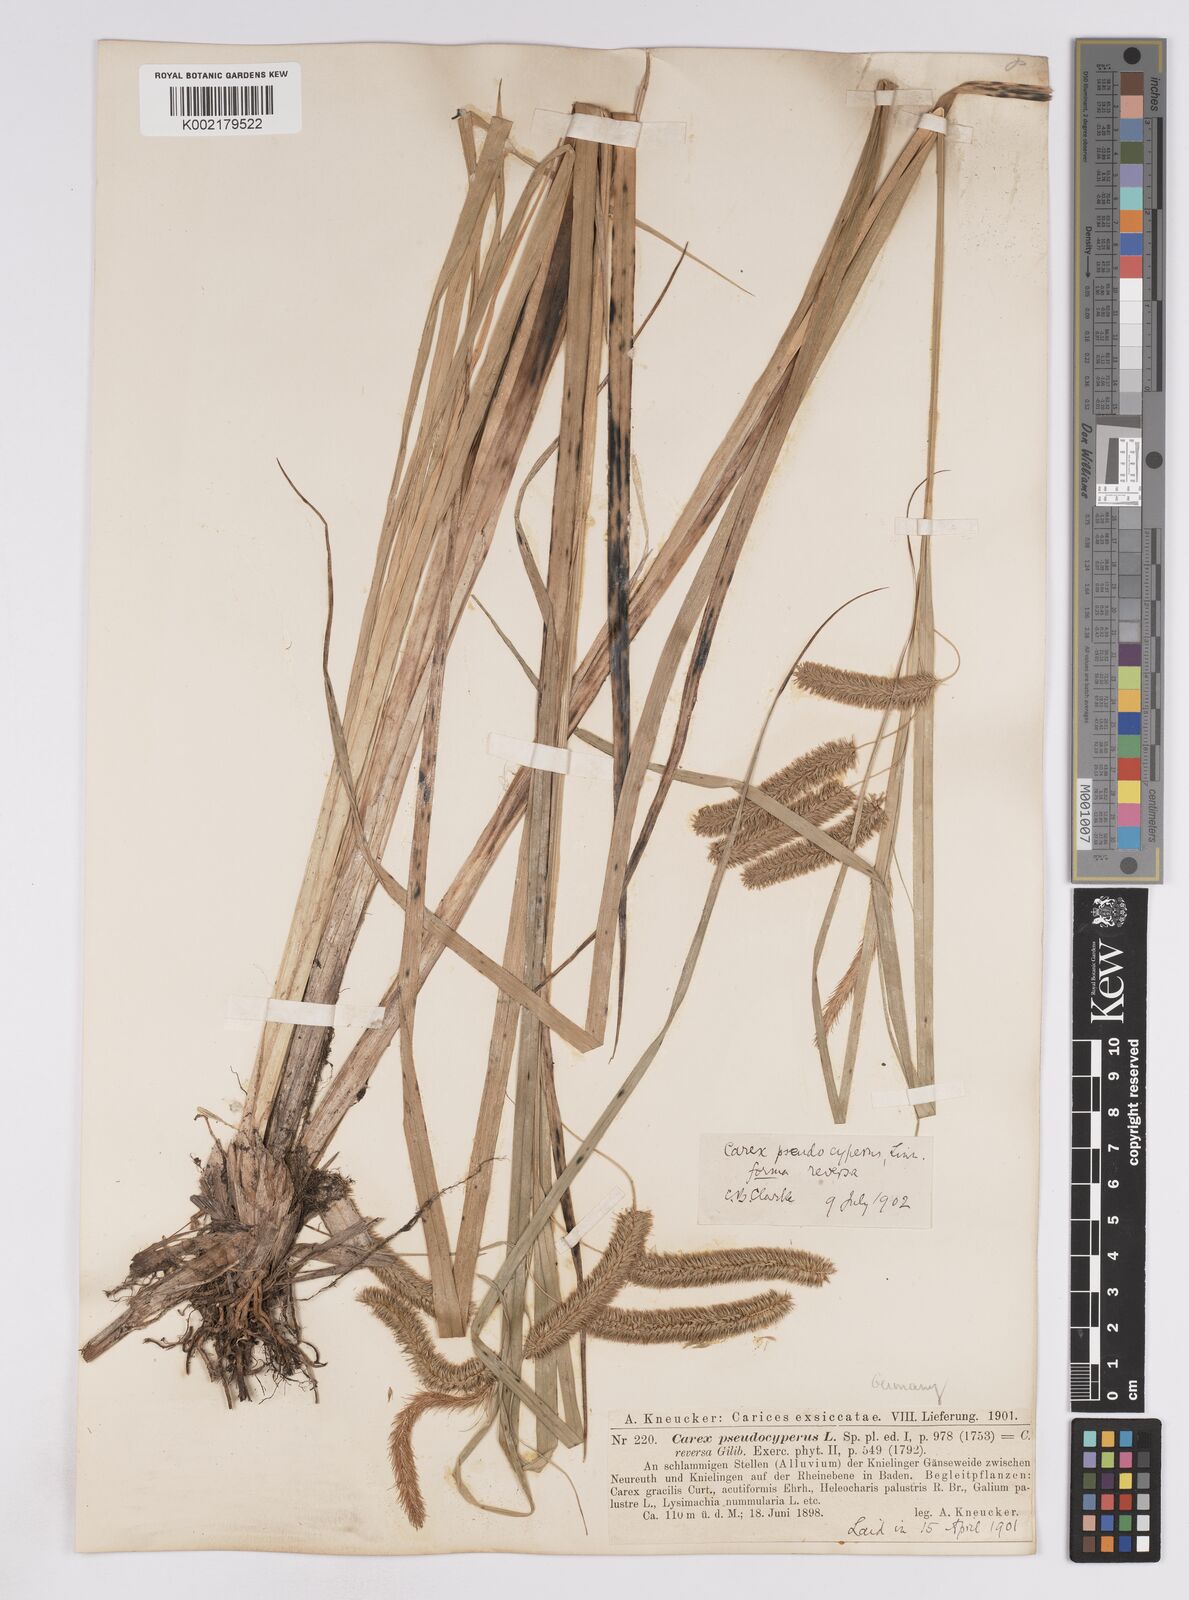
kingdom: Plantae
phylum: Tracheophyta
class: Liliopsida
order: Poales
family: Cyperaceae
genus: Carex
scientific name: Carex pseudocyperus
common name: Cyperus sedge
